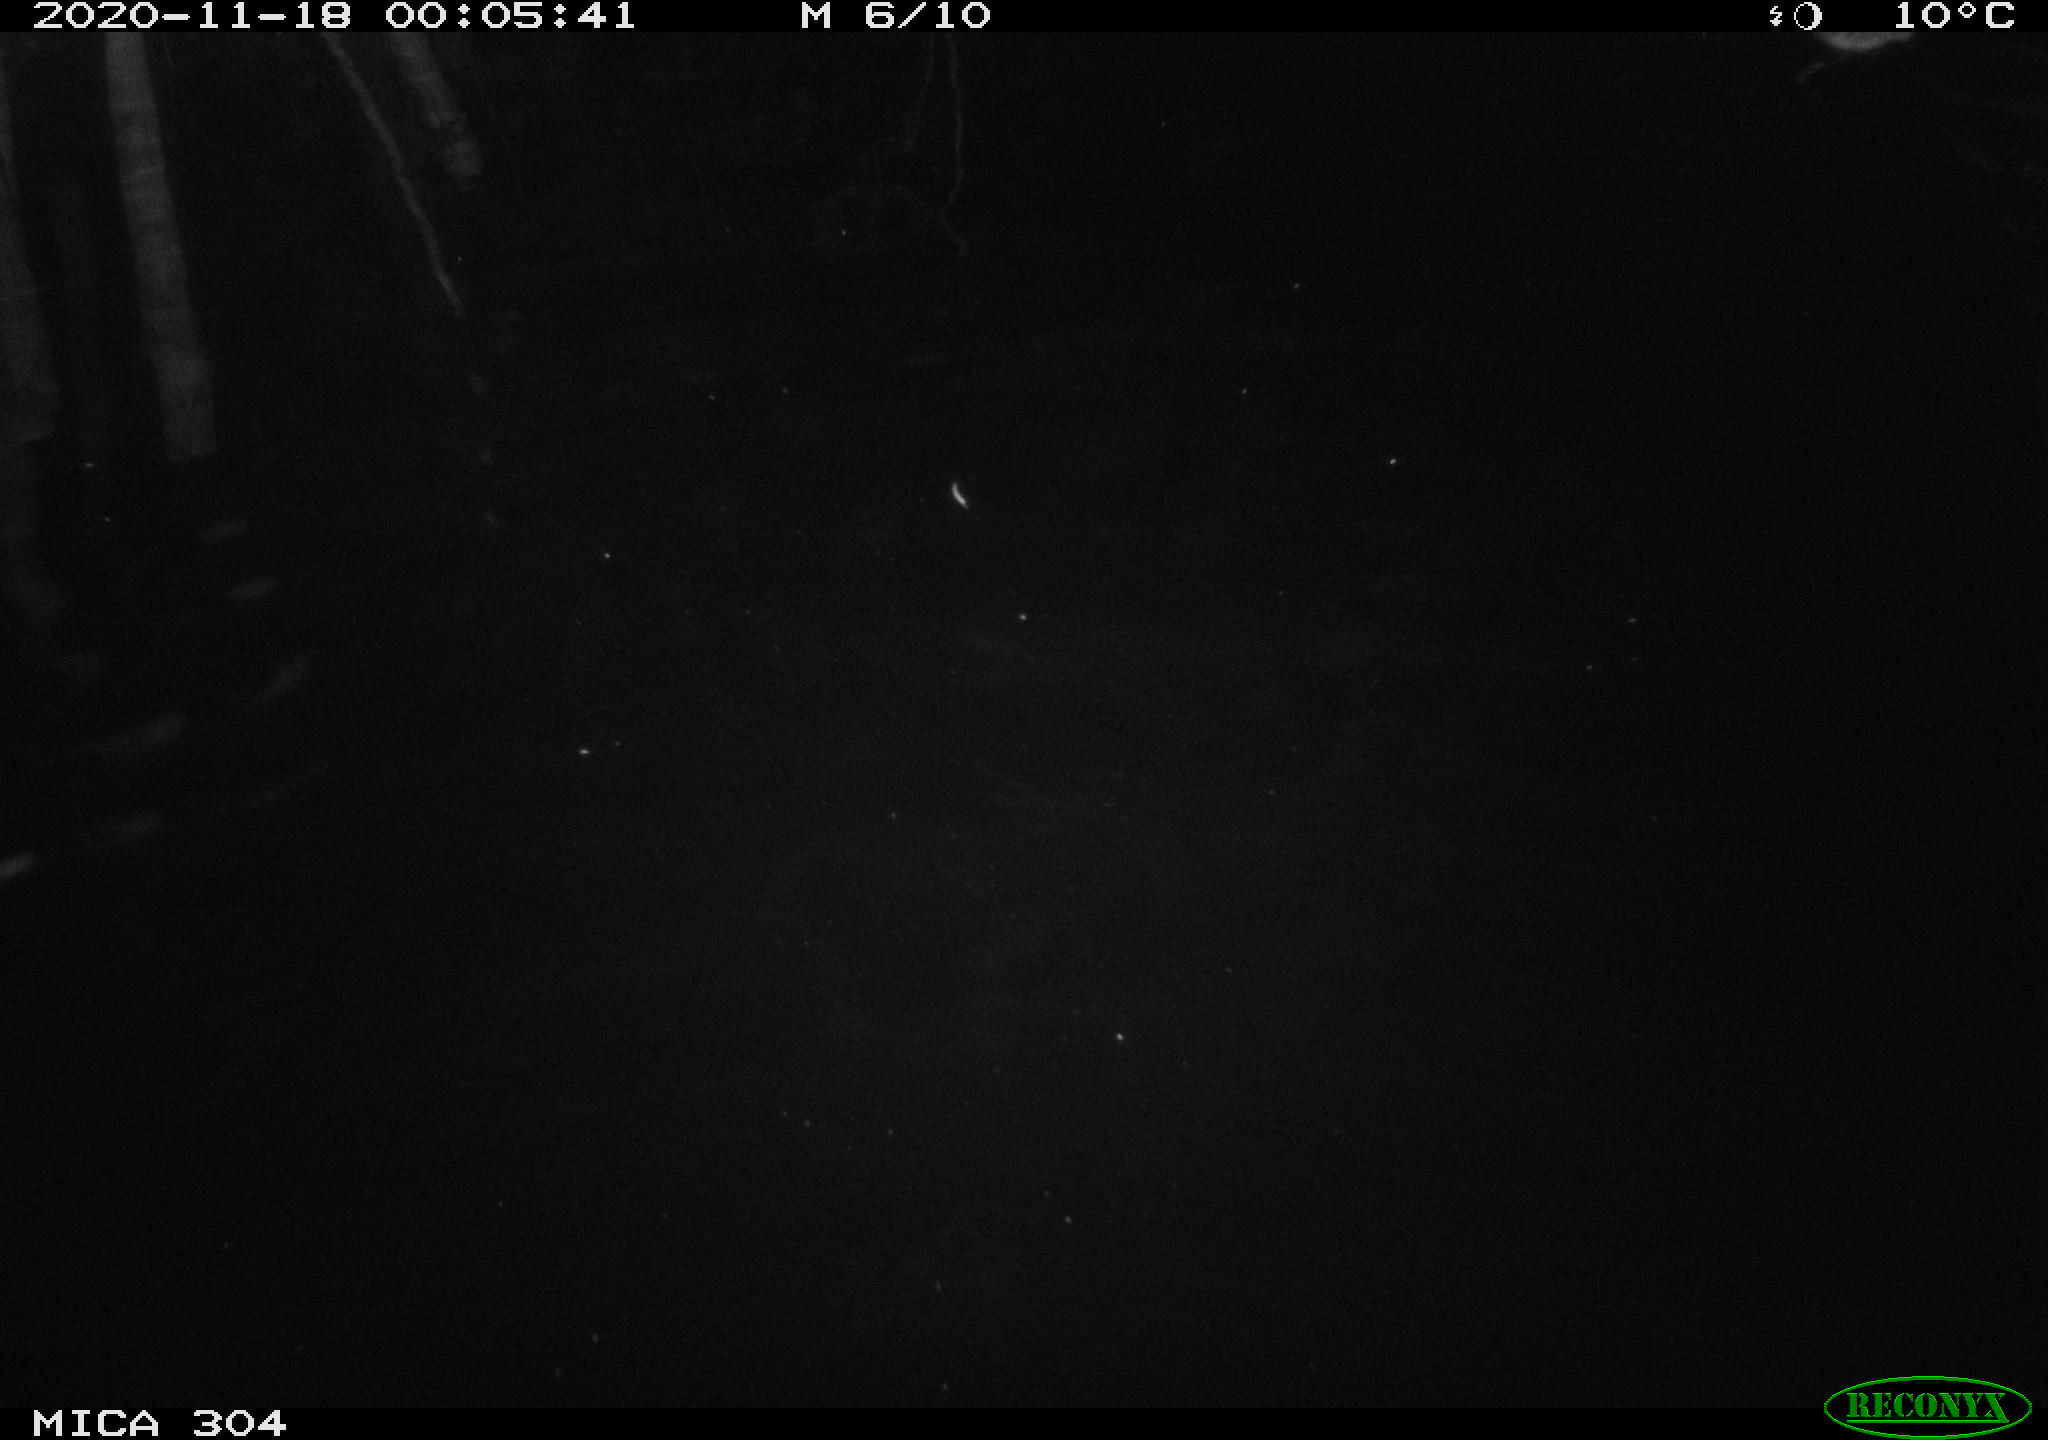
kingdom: Animalia
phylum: Chordata
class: Mammalia
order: Rodentia
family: Cricetidae
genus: Ondatra
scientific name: Ondatra zibethicus
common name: Muskrat
